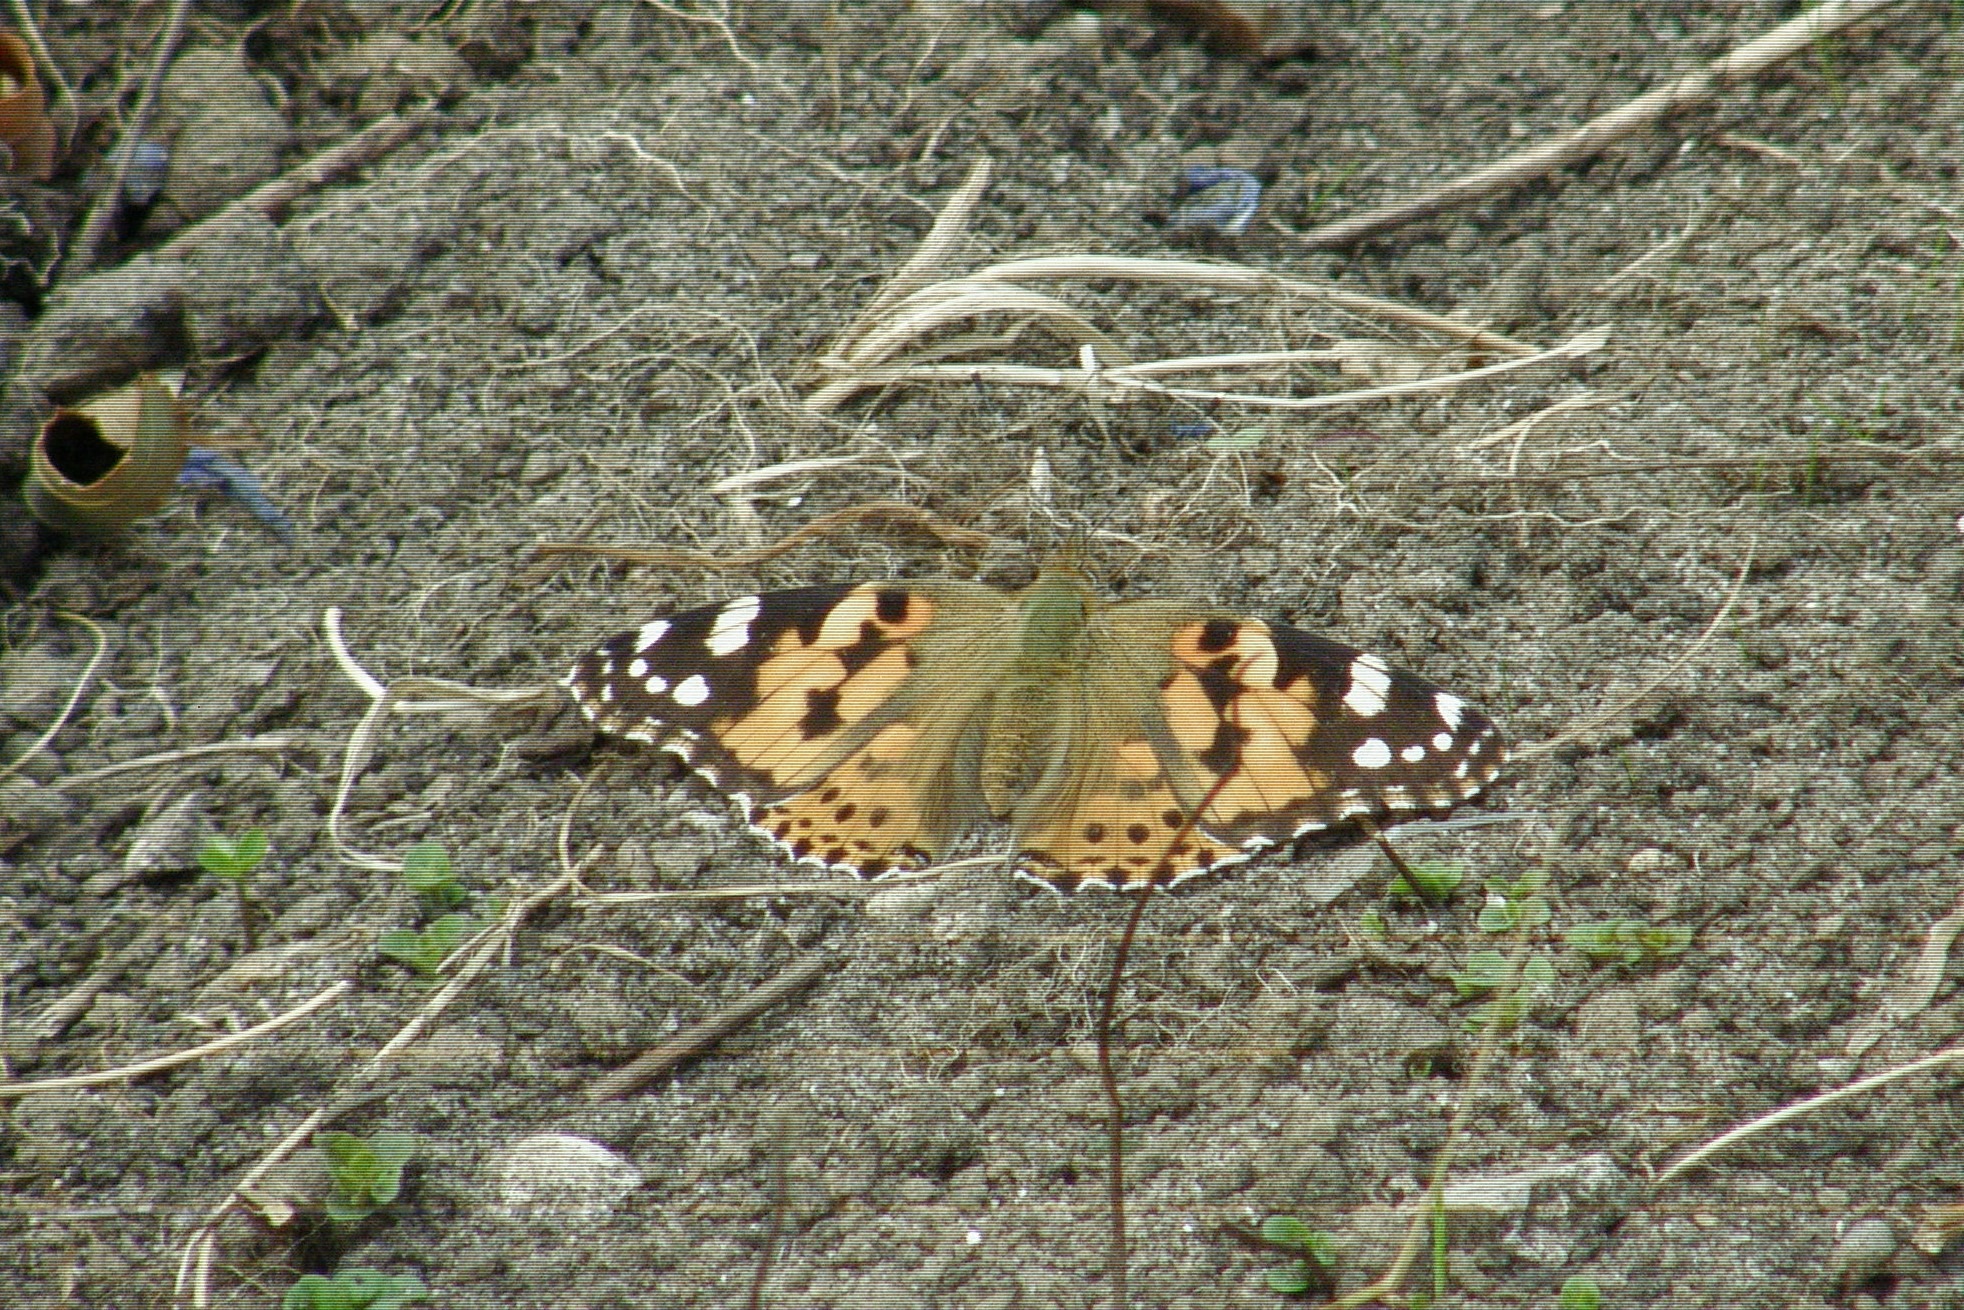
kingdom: Animalia
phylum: Arthropoda
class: Insecta
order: Lepidoptera
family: Nymphalidae
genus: Vanessa
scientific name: Vanessa cardui
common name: Tidselsommerfugl
